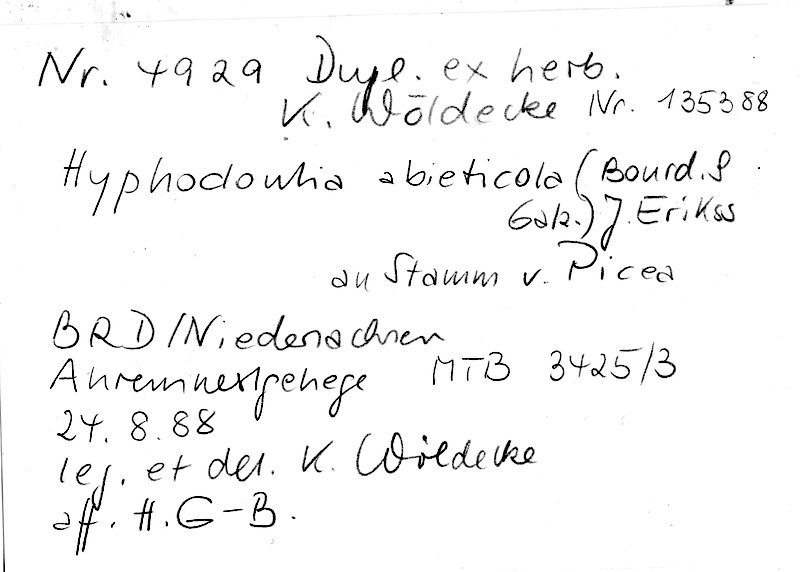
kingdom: Plantae
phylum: Tracheophyta
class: Pinopsida
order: Pinales
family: Pinaceae
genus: Picea
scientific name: Picea
